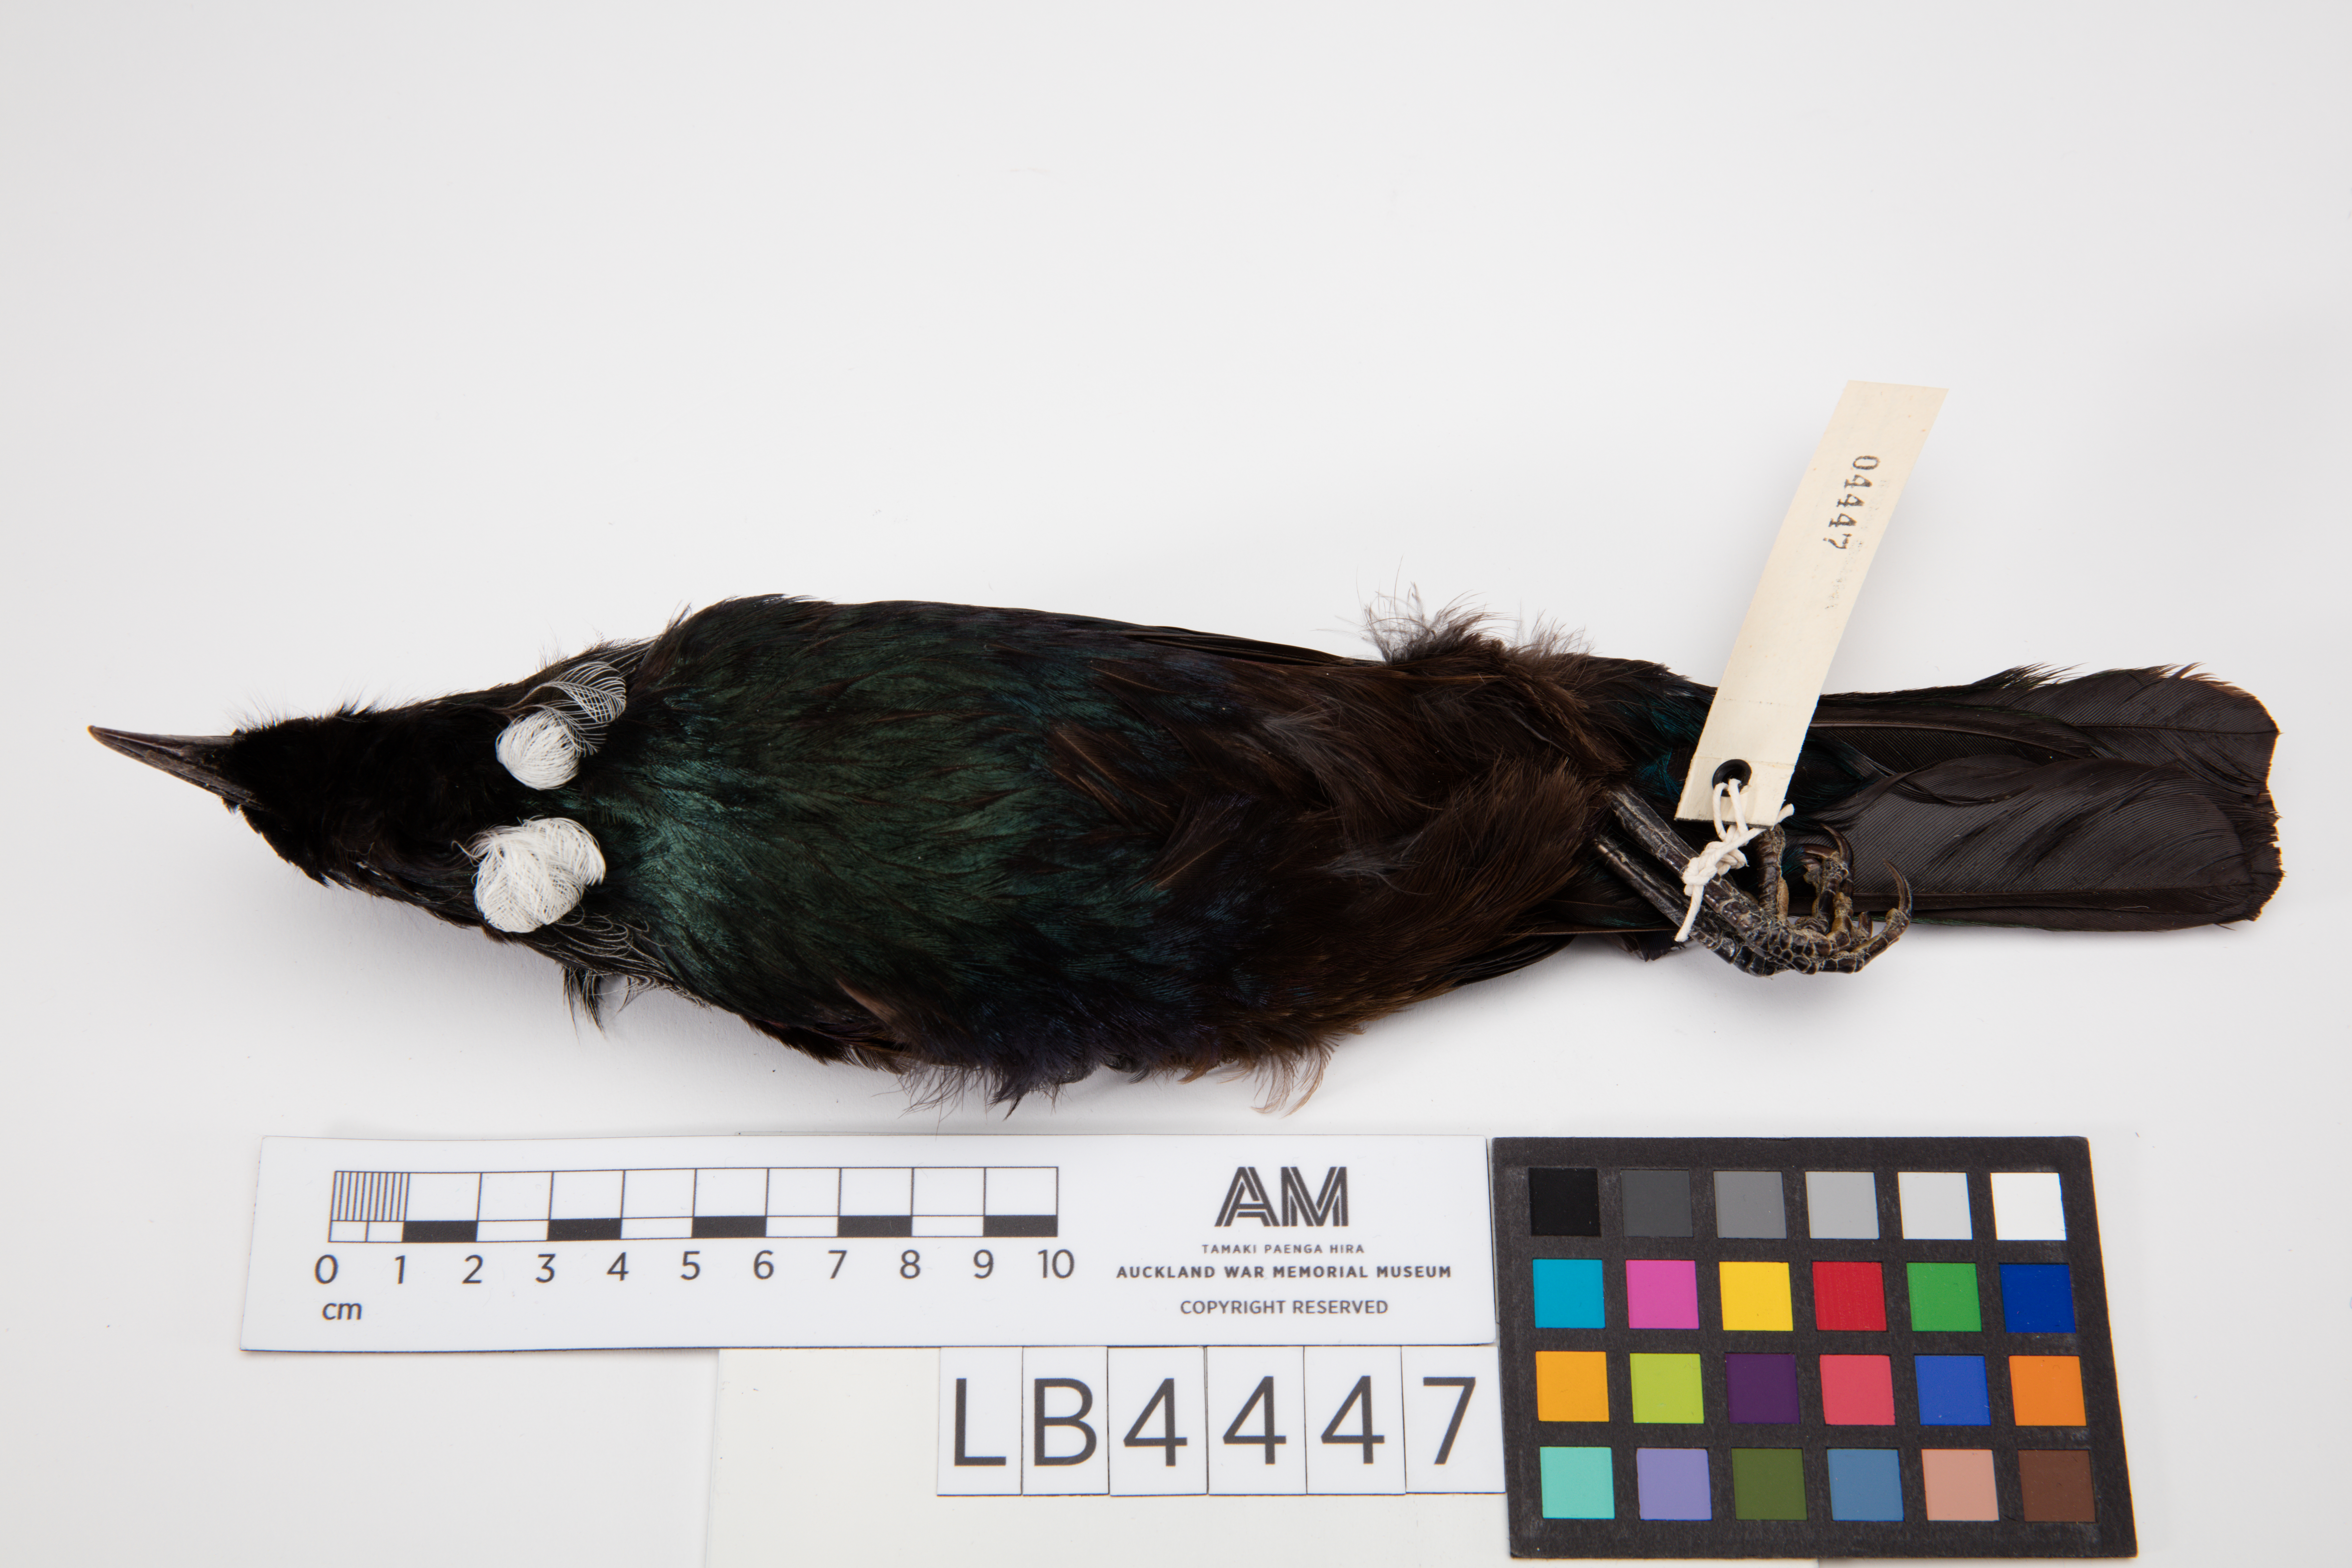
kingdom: Animalia
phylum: Chordata
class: Aves
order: Passeriformes
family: Meliphagidae
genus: Prosthemadera
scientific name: Prosthemadera novaeseelandiae
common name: Tui
